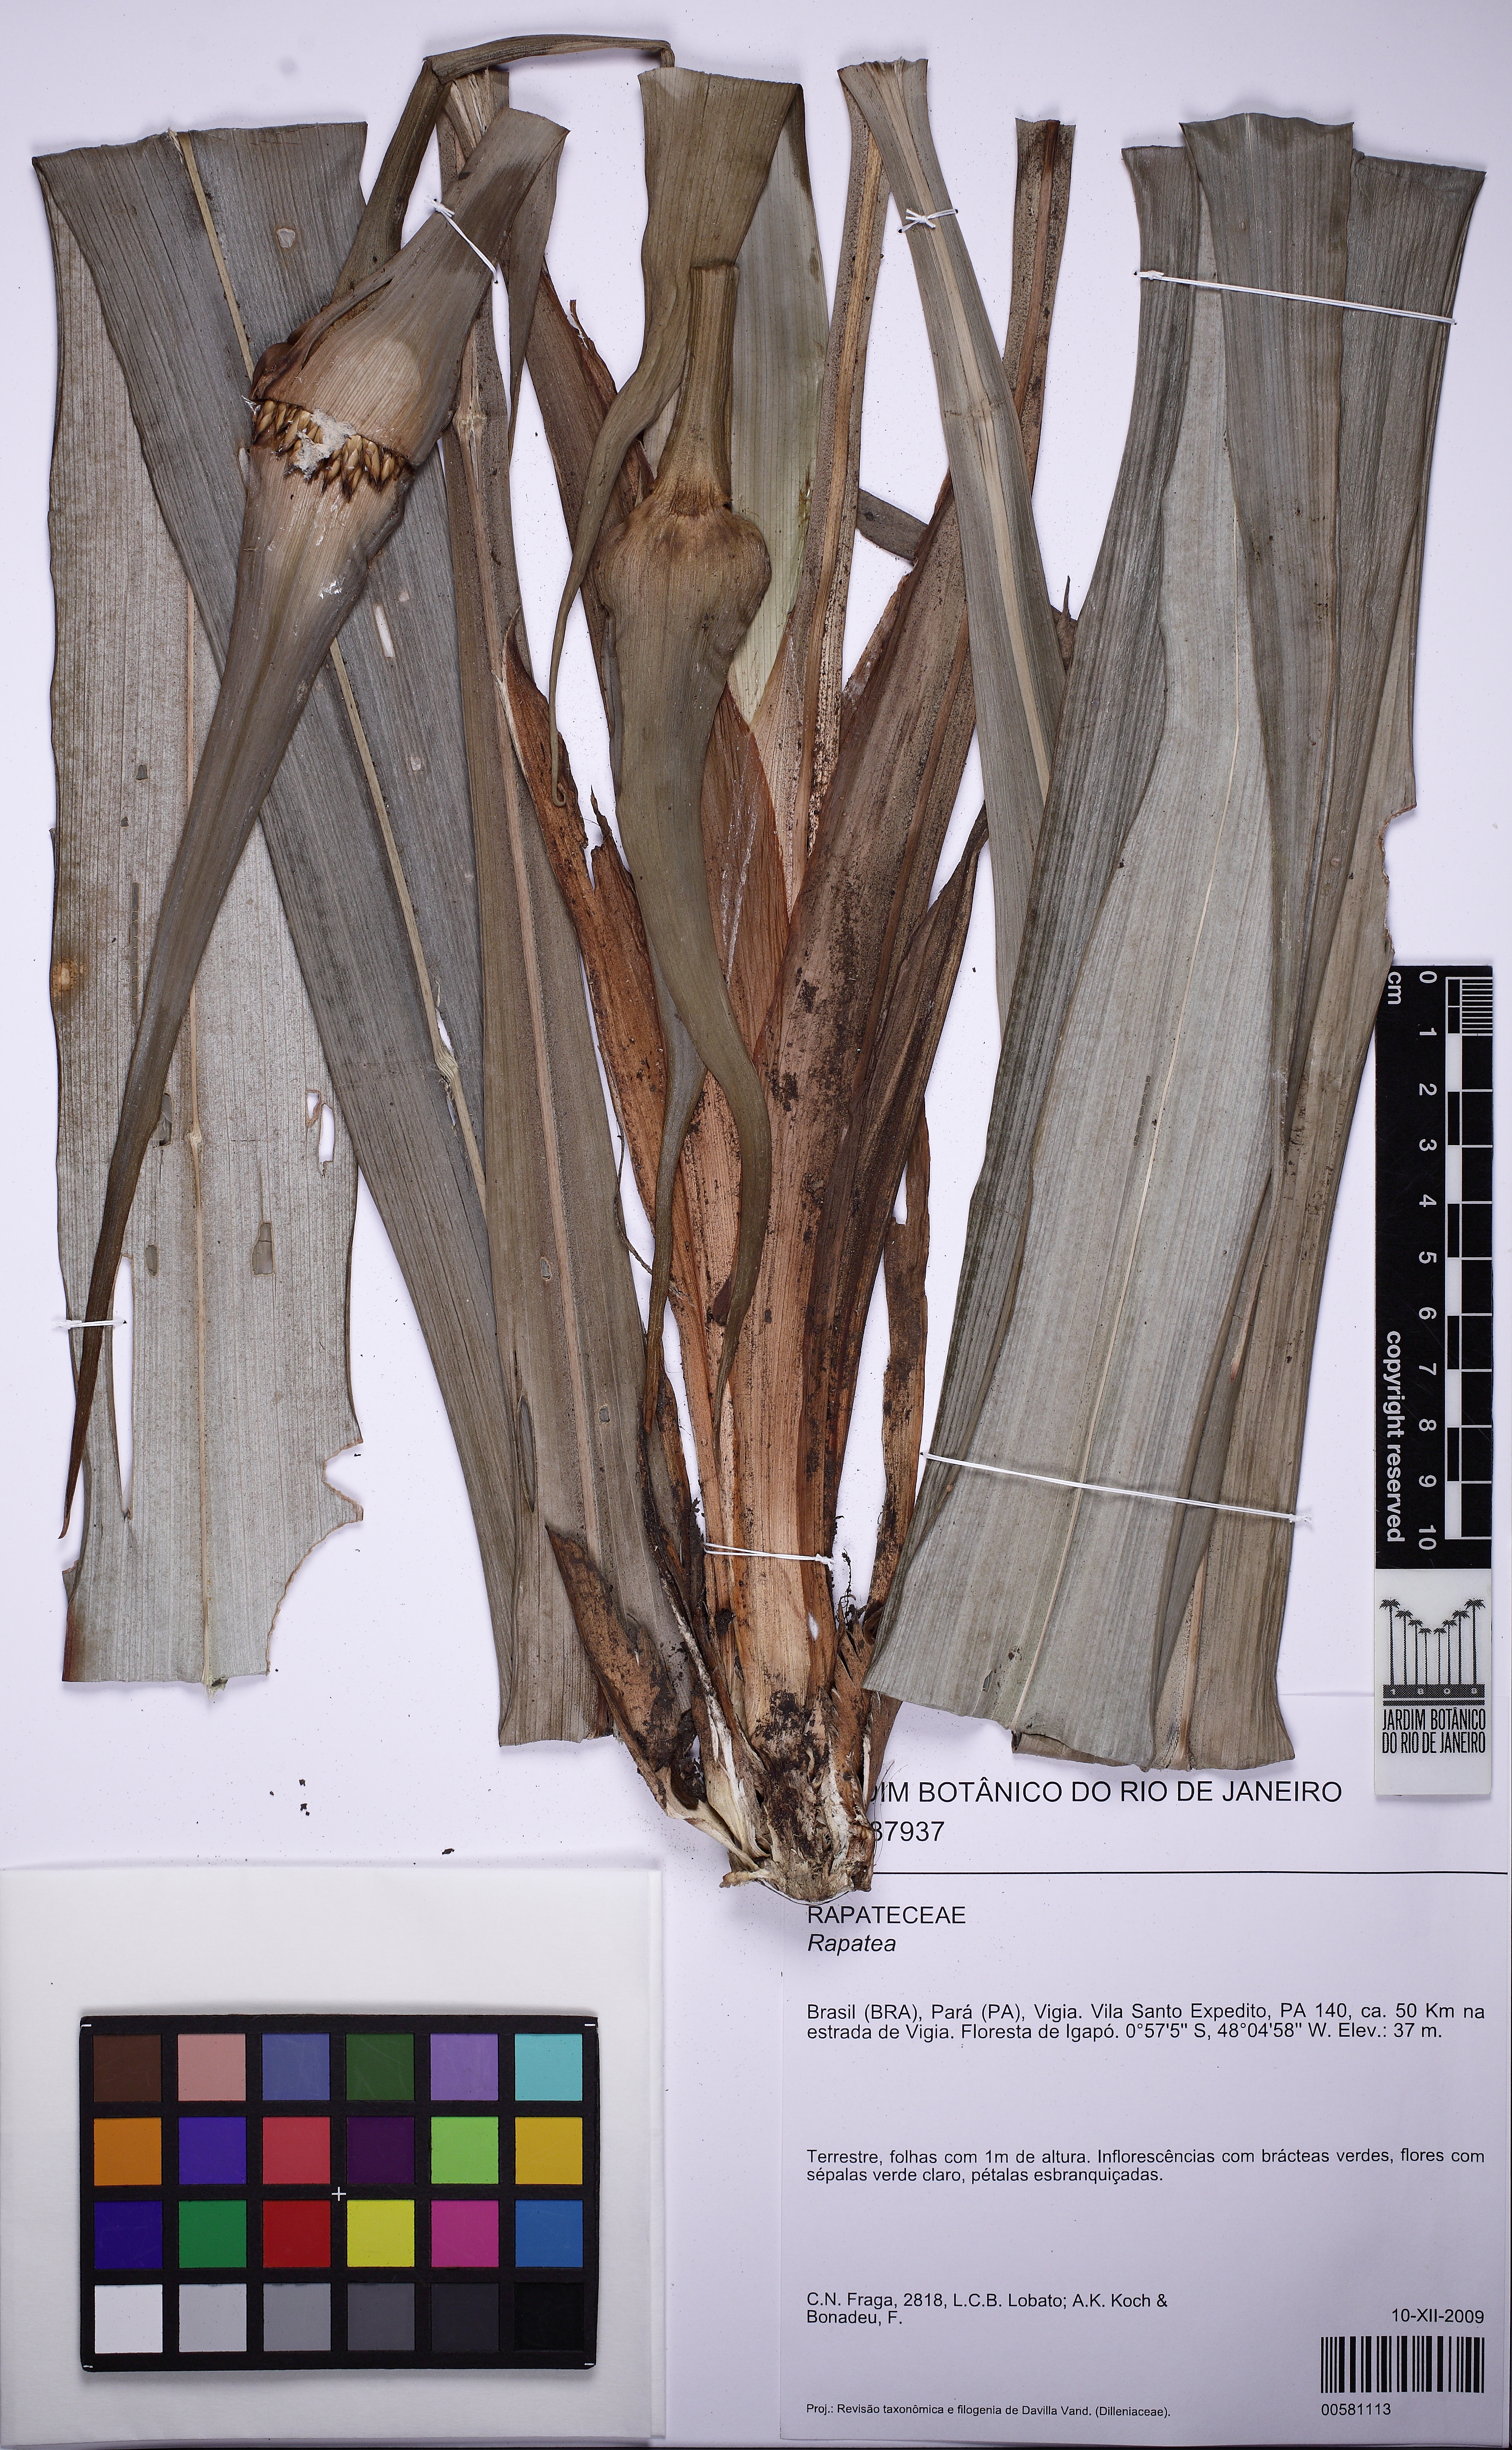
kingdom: Plantae
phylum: Tracheophyta
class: Liliopsida
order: Poales
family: Rapateaceae
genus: Rapatea
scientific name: Rapatea
